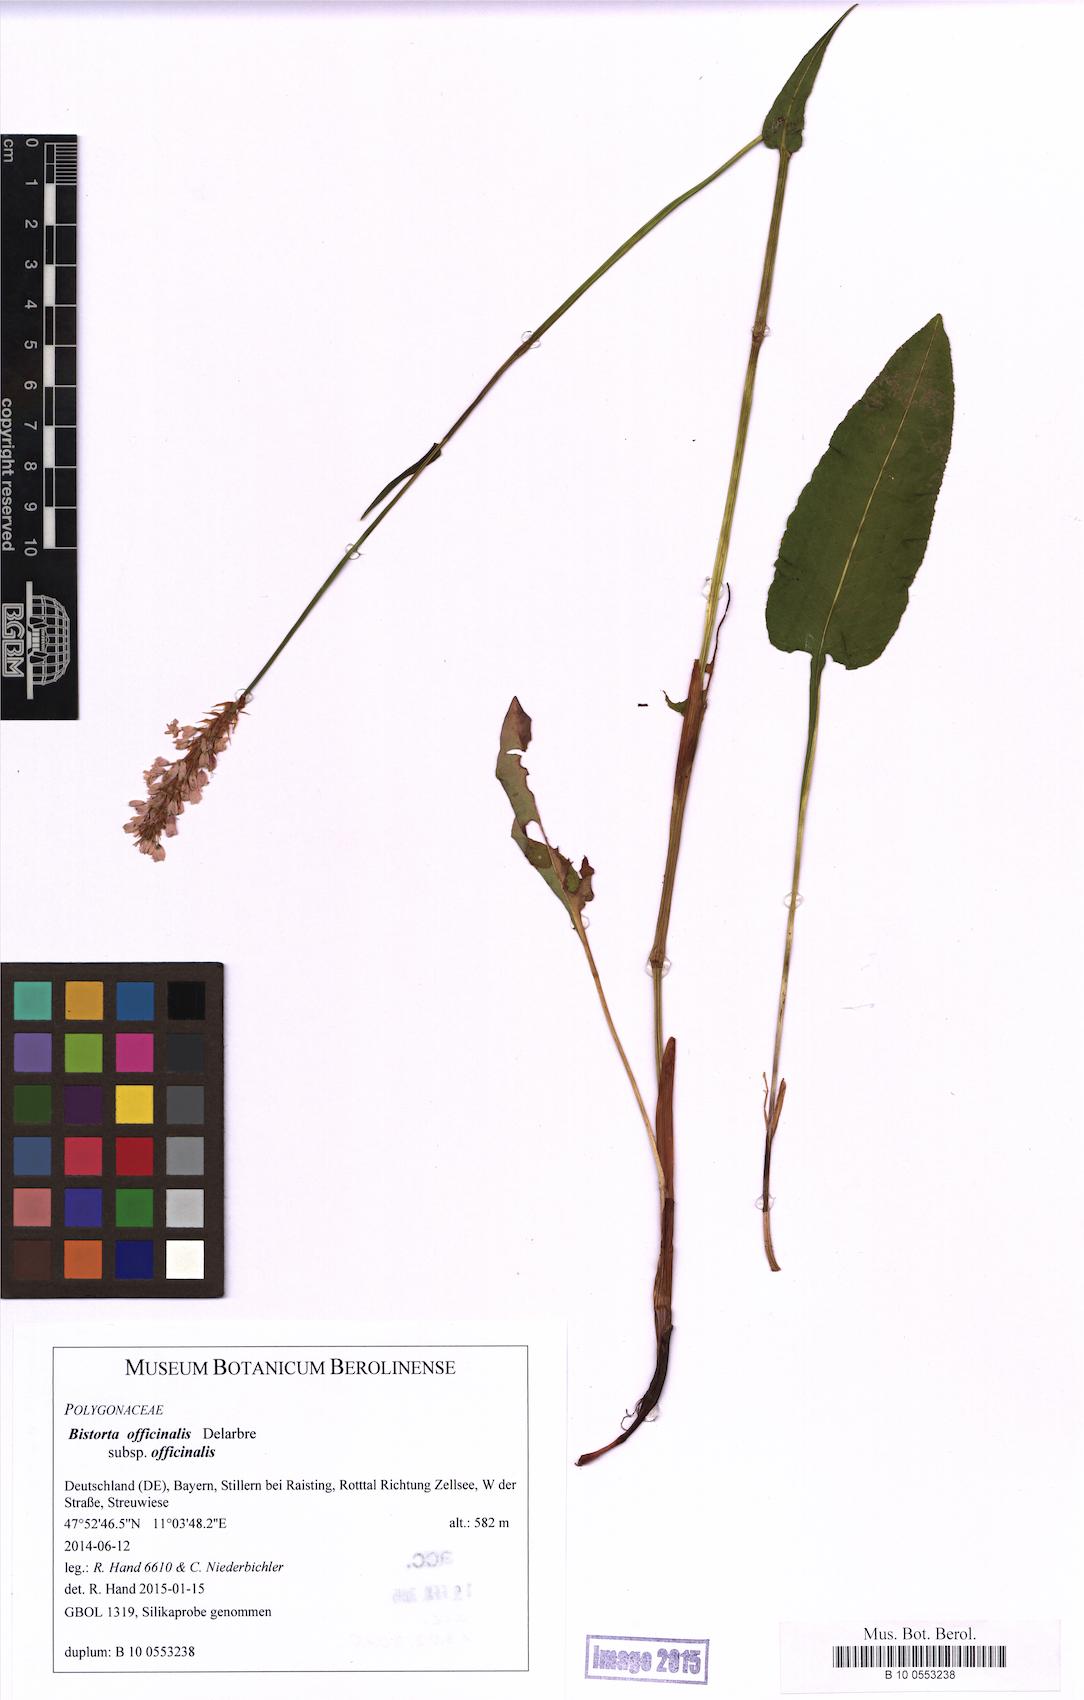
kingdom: Plantae
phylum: Tracheophyta
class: Magnoliopsida
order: Caryophyllales
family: Polygonaceae
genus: Bistorta
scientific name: Bistorta officinalis
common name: Common bistort
